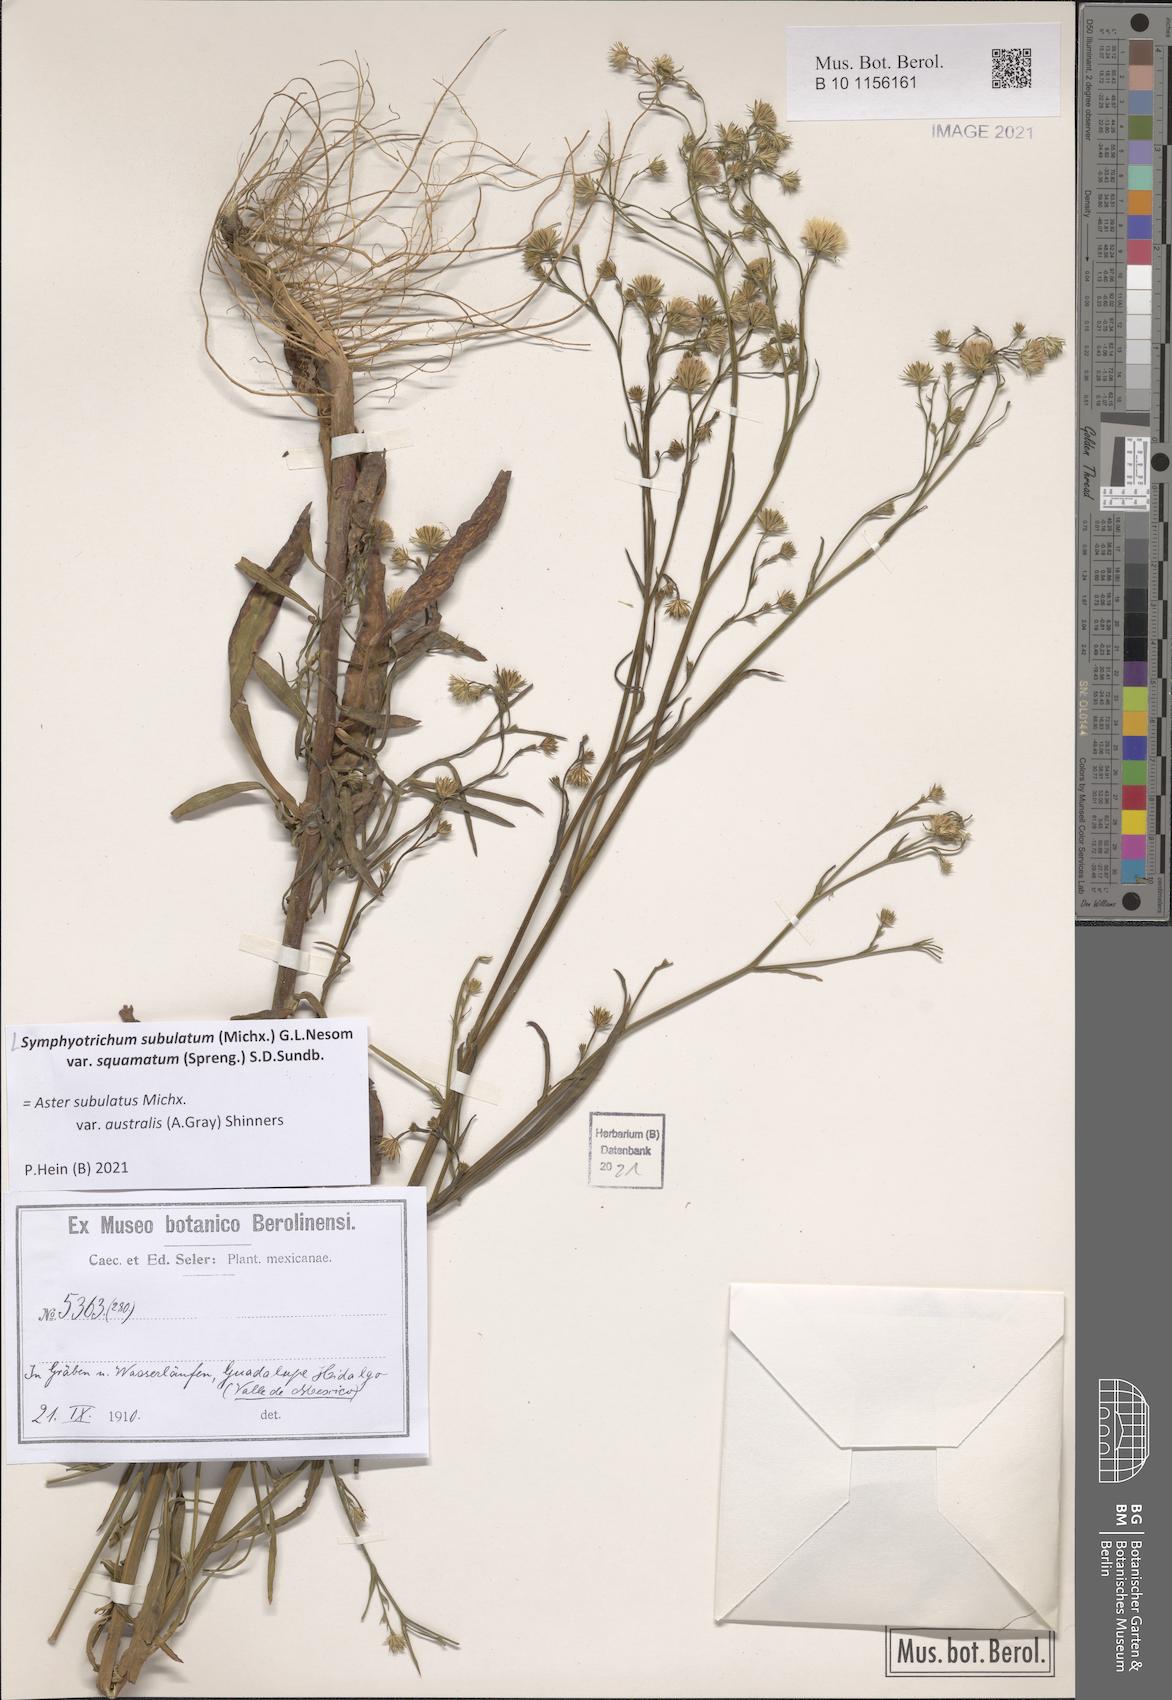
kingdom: Plantae
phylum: Tracheophyta
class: Magnoliopsida
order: Asterales
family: Asteraceae
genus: Symphyotrichum
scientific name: Symphyotrichum squamatum
